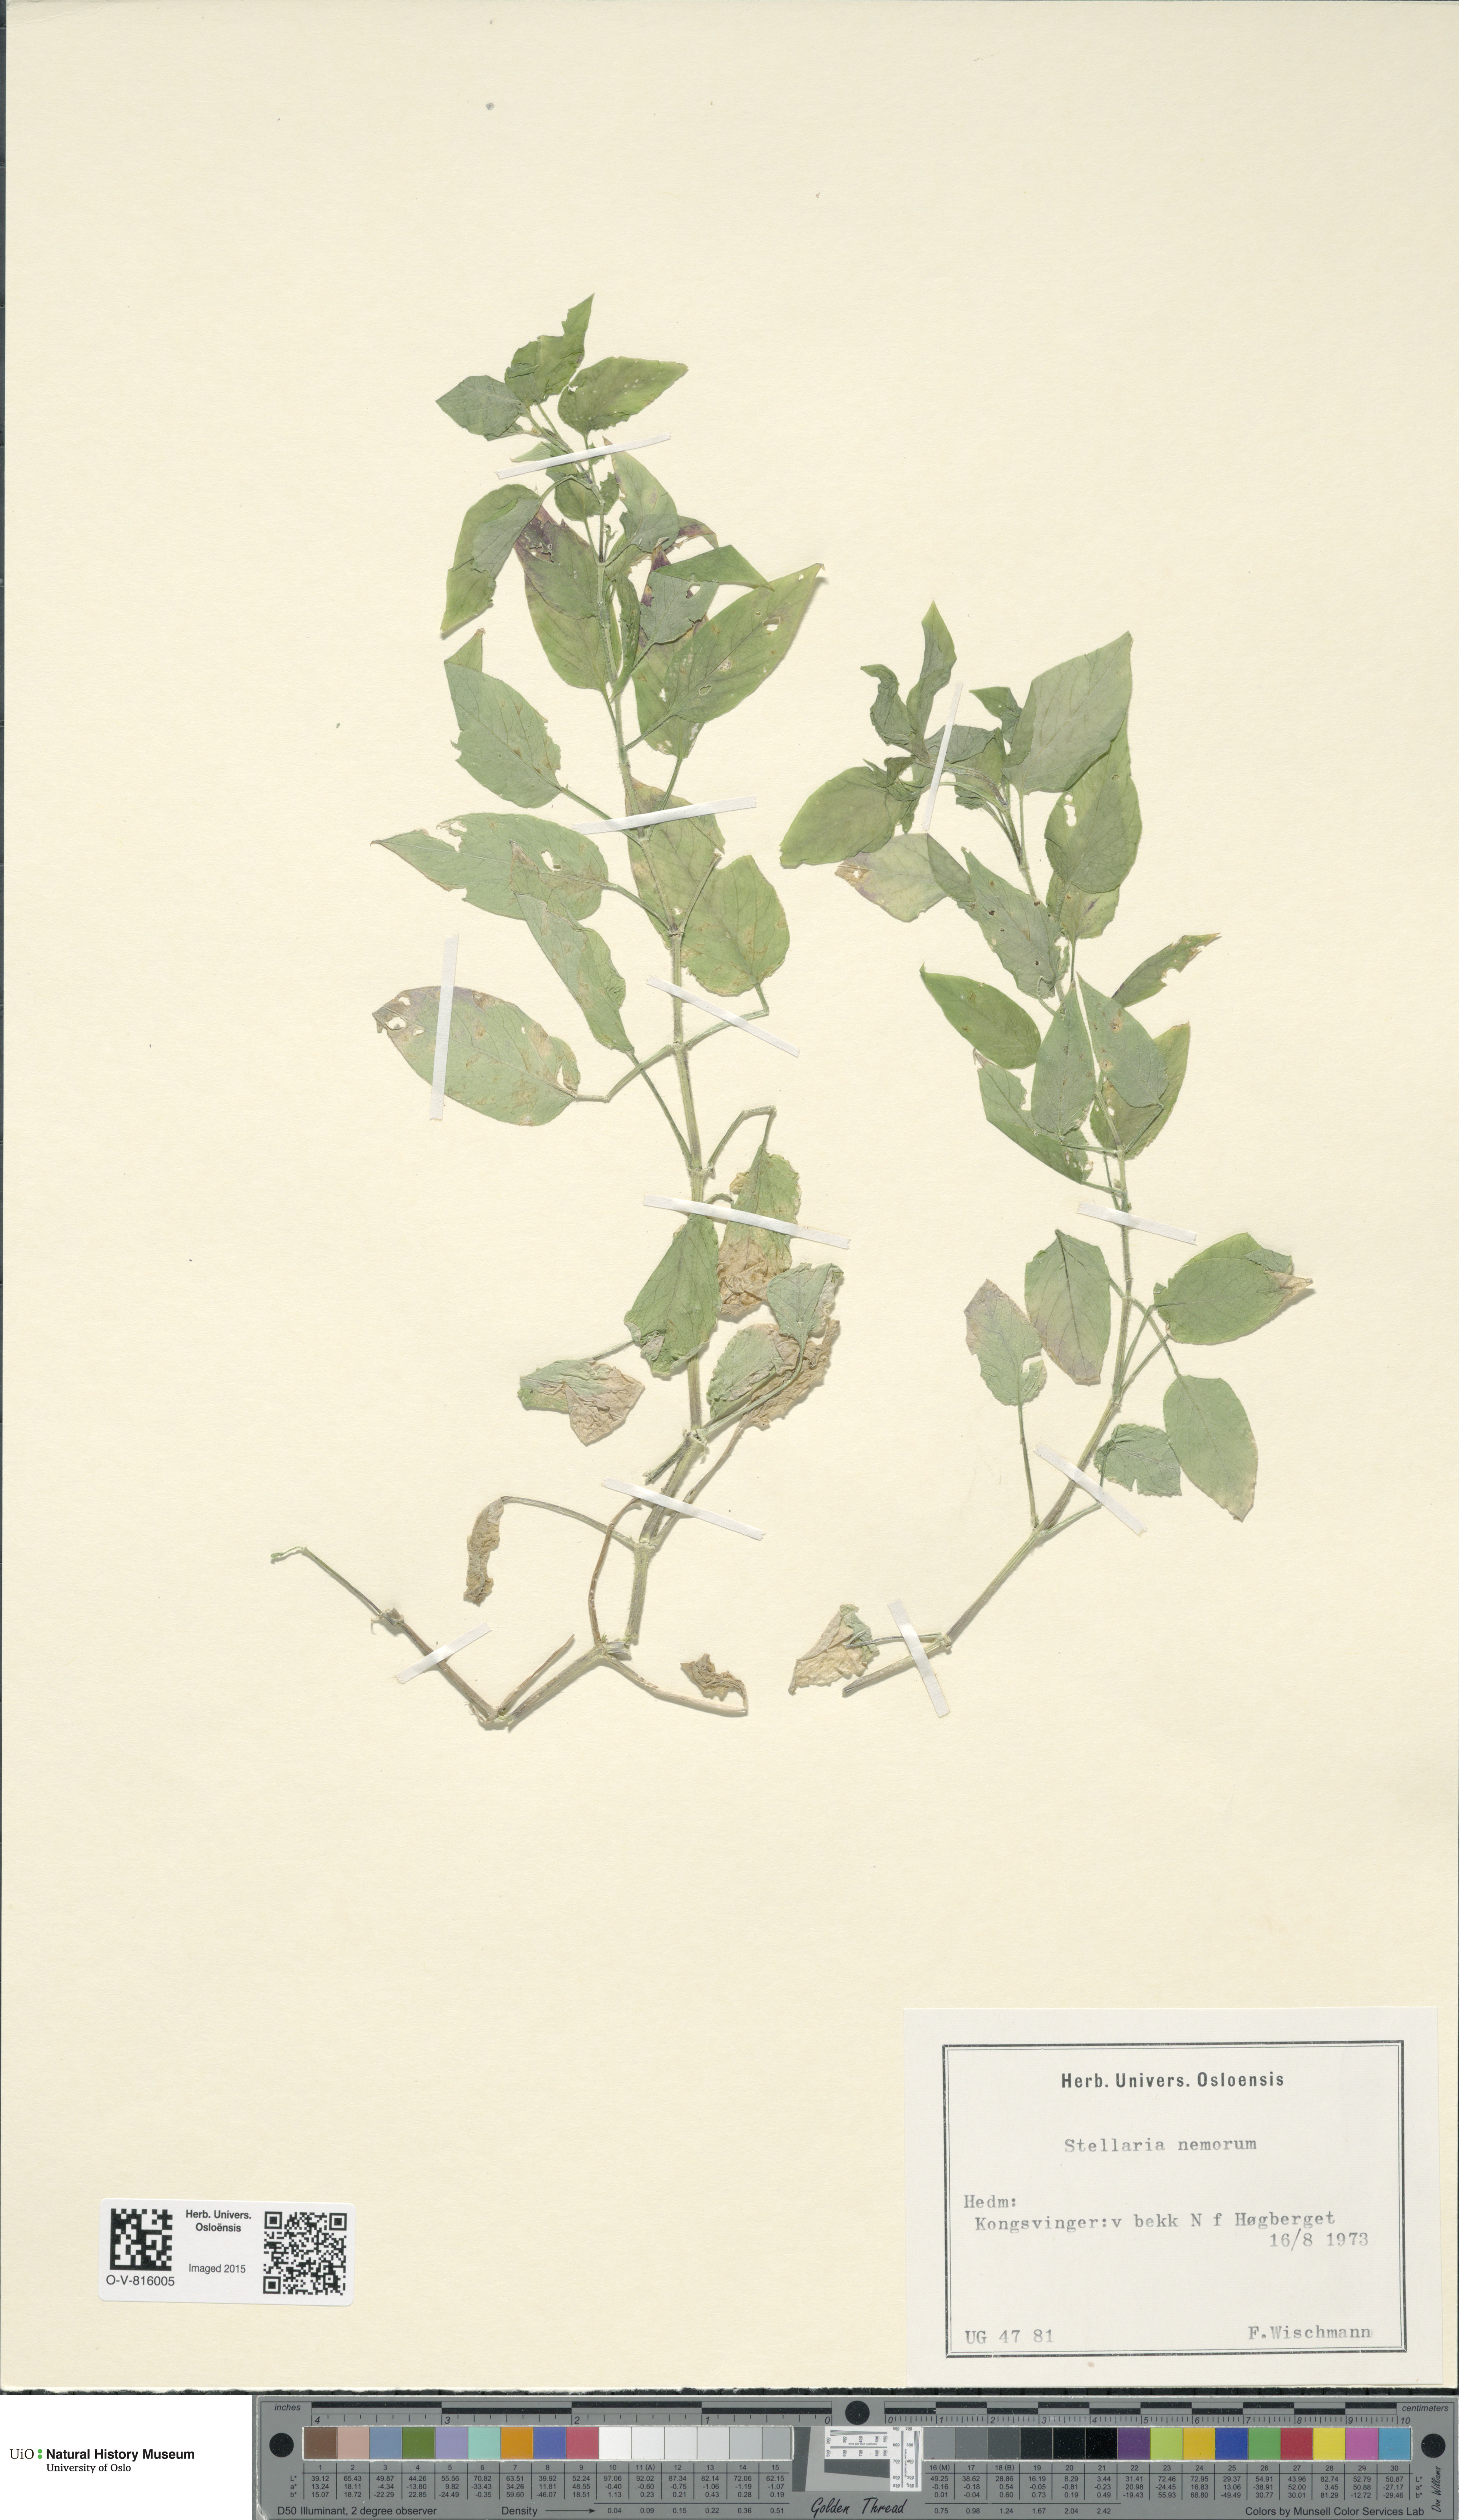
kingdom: Plantae
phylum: Tracheophyta
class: Magnoliopsida
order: Caryophyllales
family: Caryophyllaceae
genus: Stellaria
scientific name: Stellaria nemorum
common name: Wood stitchwort
